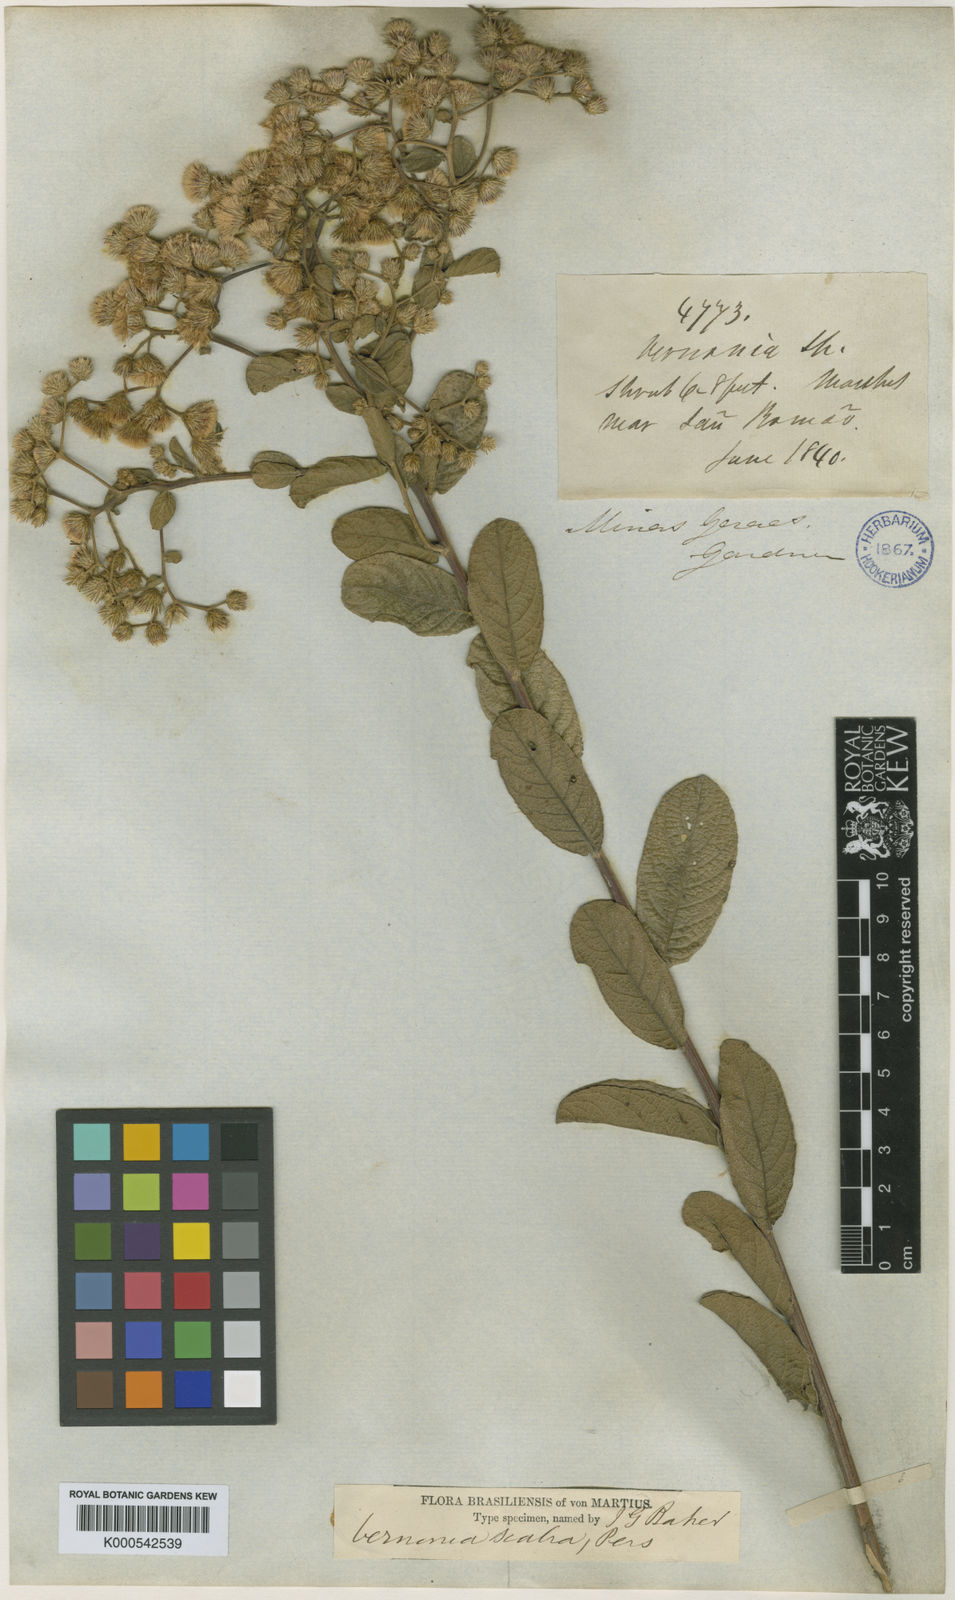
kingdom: Plantae
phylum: Tracheophyta
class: Magnoliopsida
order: Asterales
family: Asteraceae
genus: Vernonanthura
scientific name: Vernonanthura brasiliana
